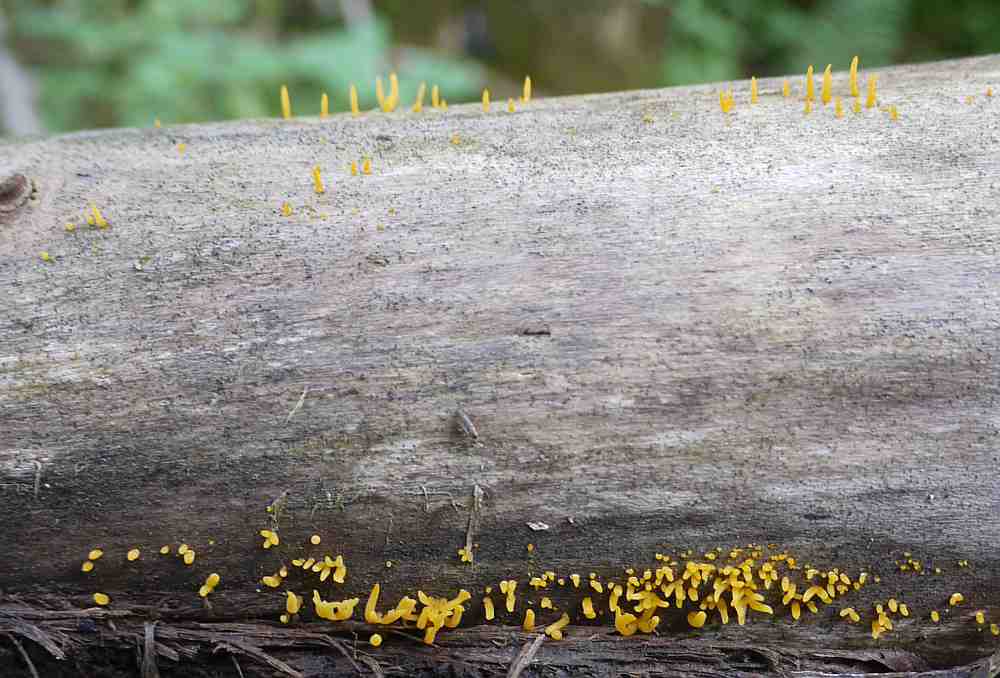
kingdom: Fungi
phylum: Basidiomycota
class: Dacrymycetes
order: Dacrymycetales
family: Dacrymycetaceae
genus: Calocera
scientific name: Calocera cornea
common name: liden guldgaffel
